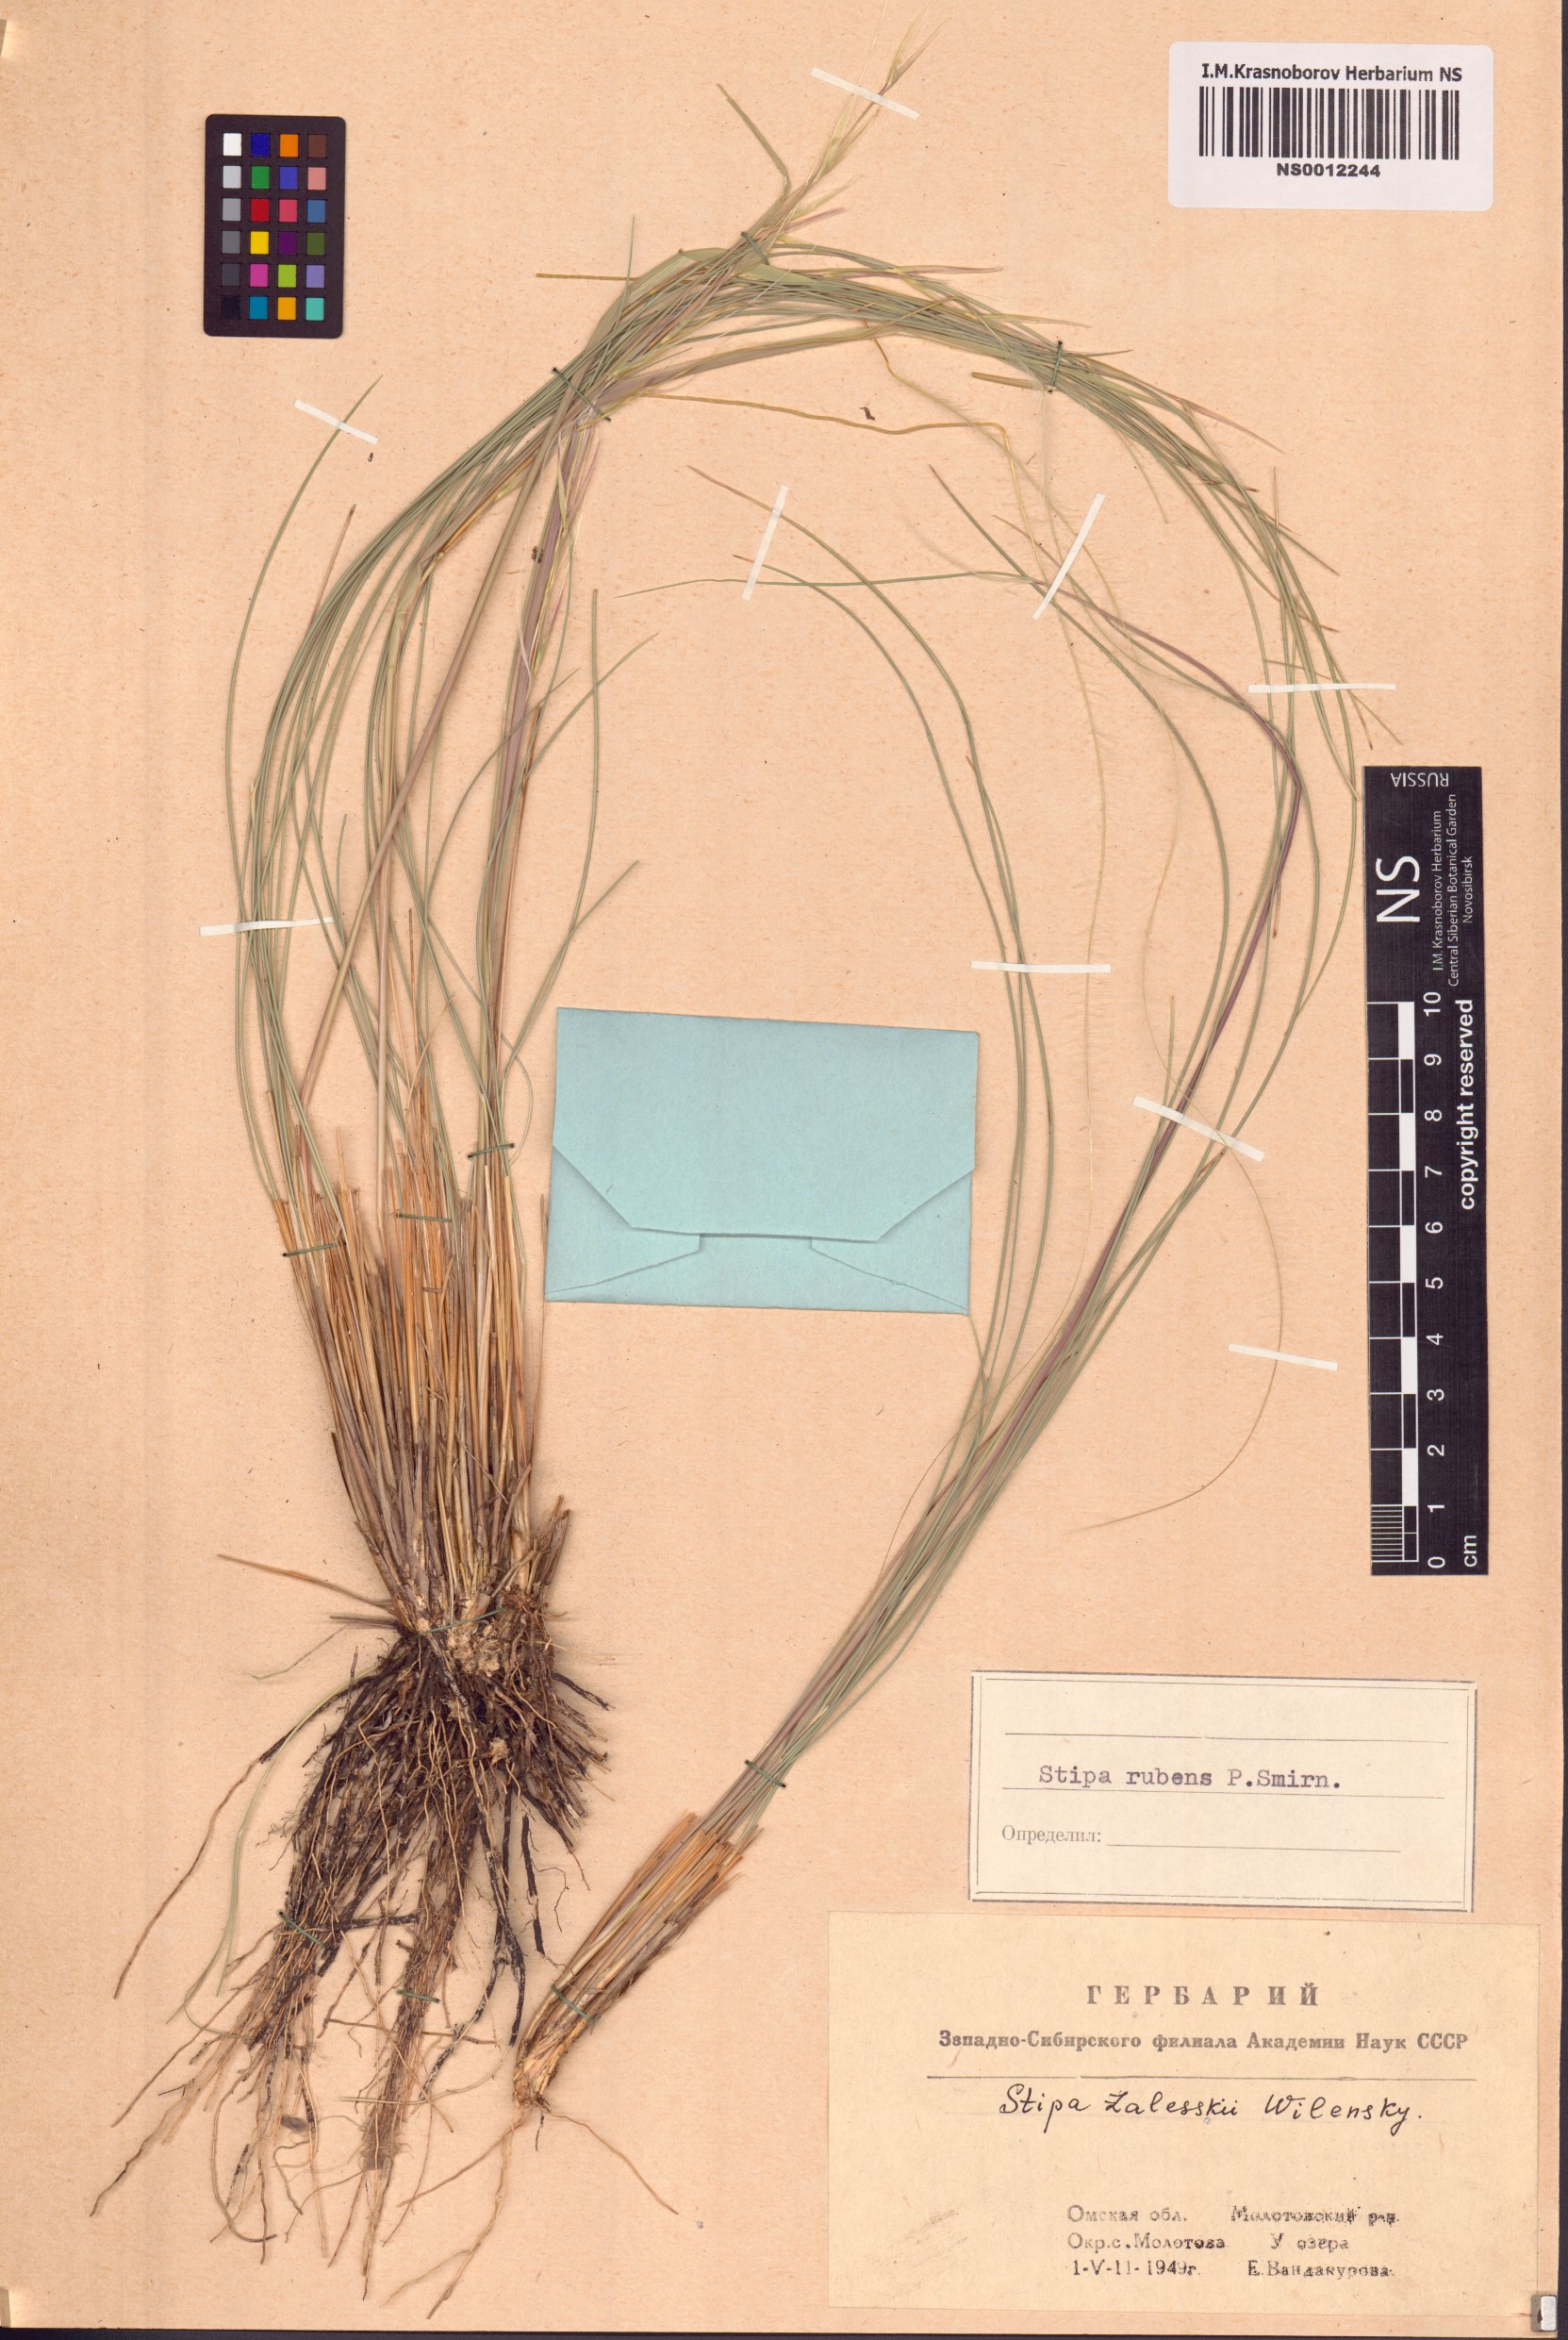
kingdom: Plantae
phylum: Tracheophyta
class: Liliopsida
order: Poales
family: Poaceae
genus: Stipa
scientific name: Stipa zalesskii
